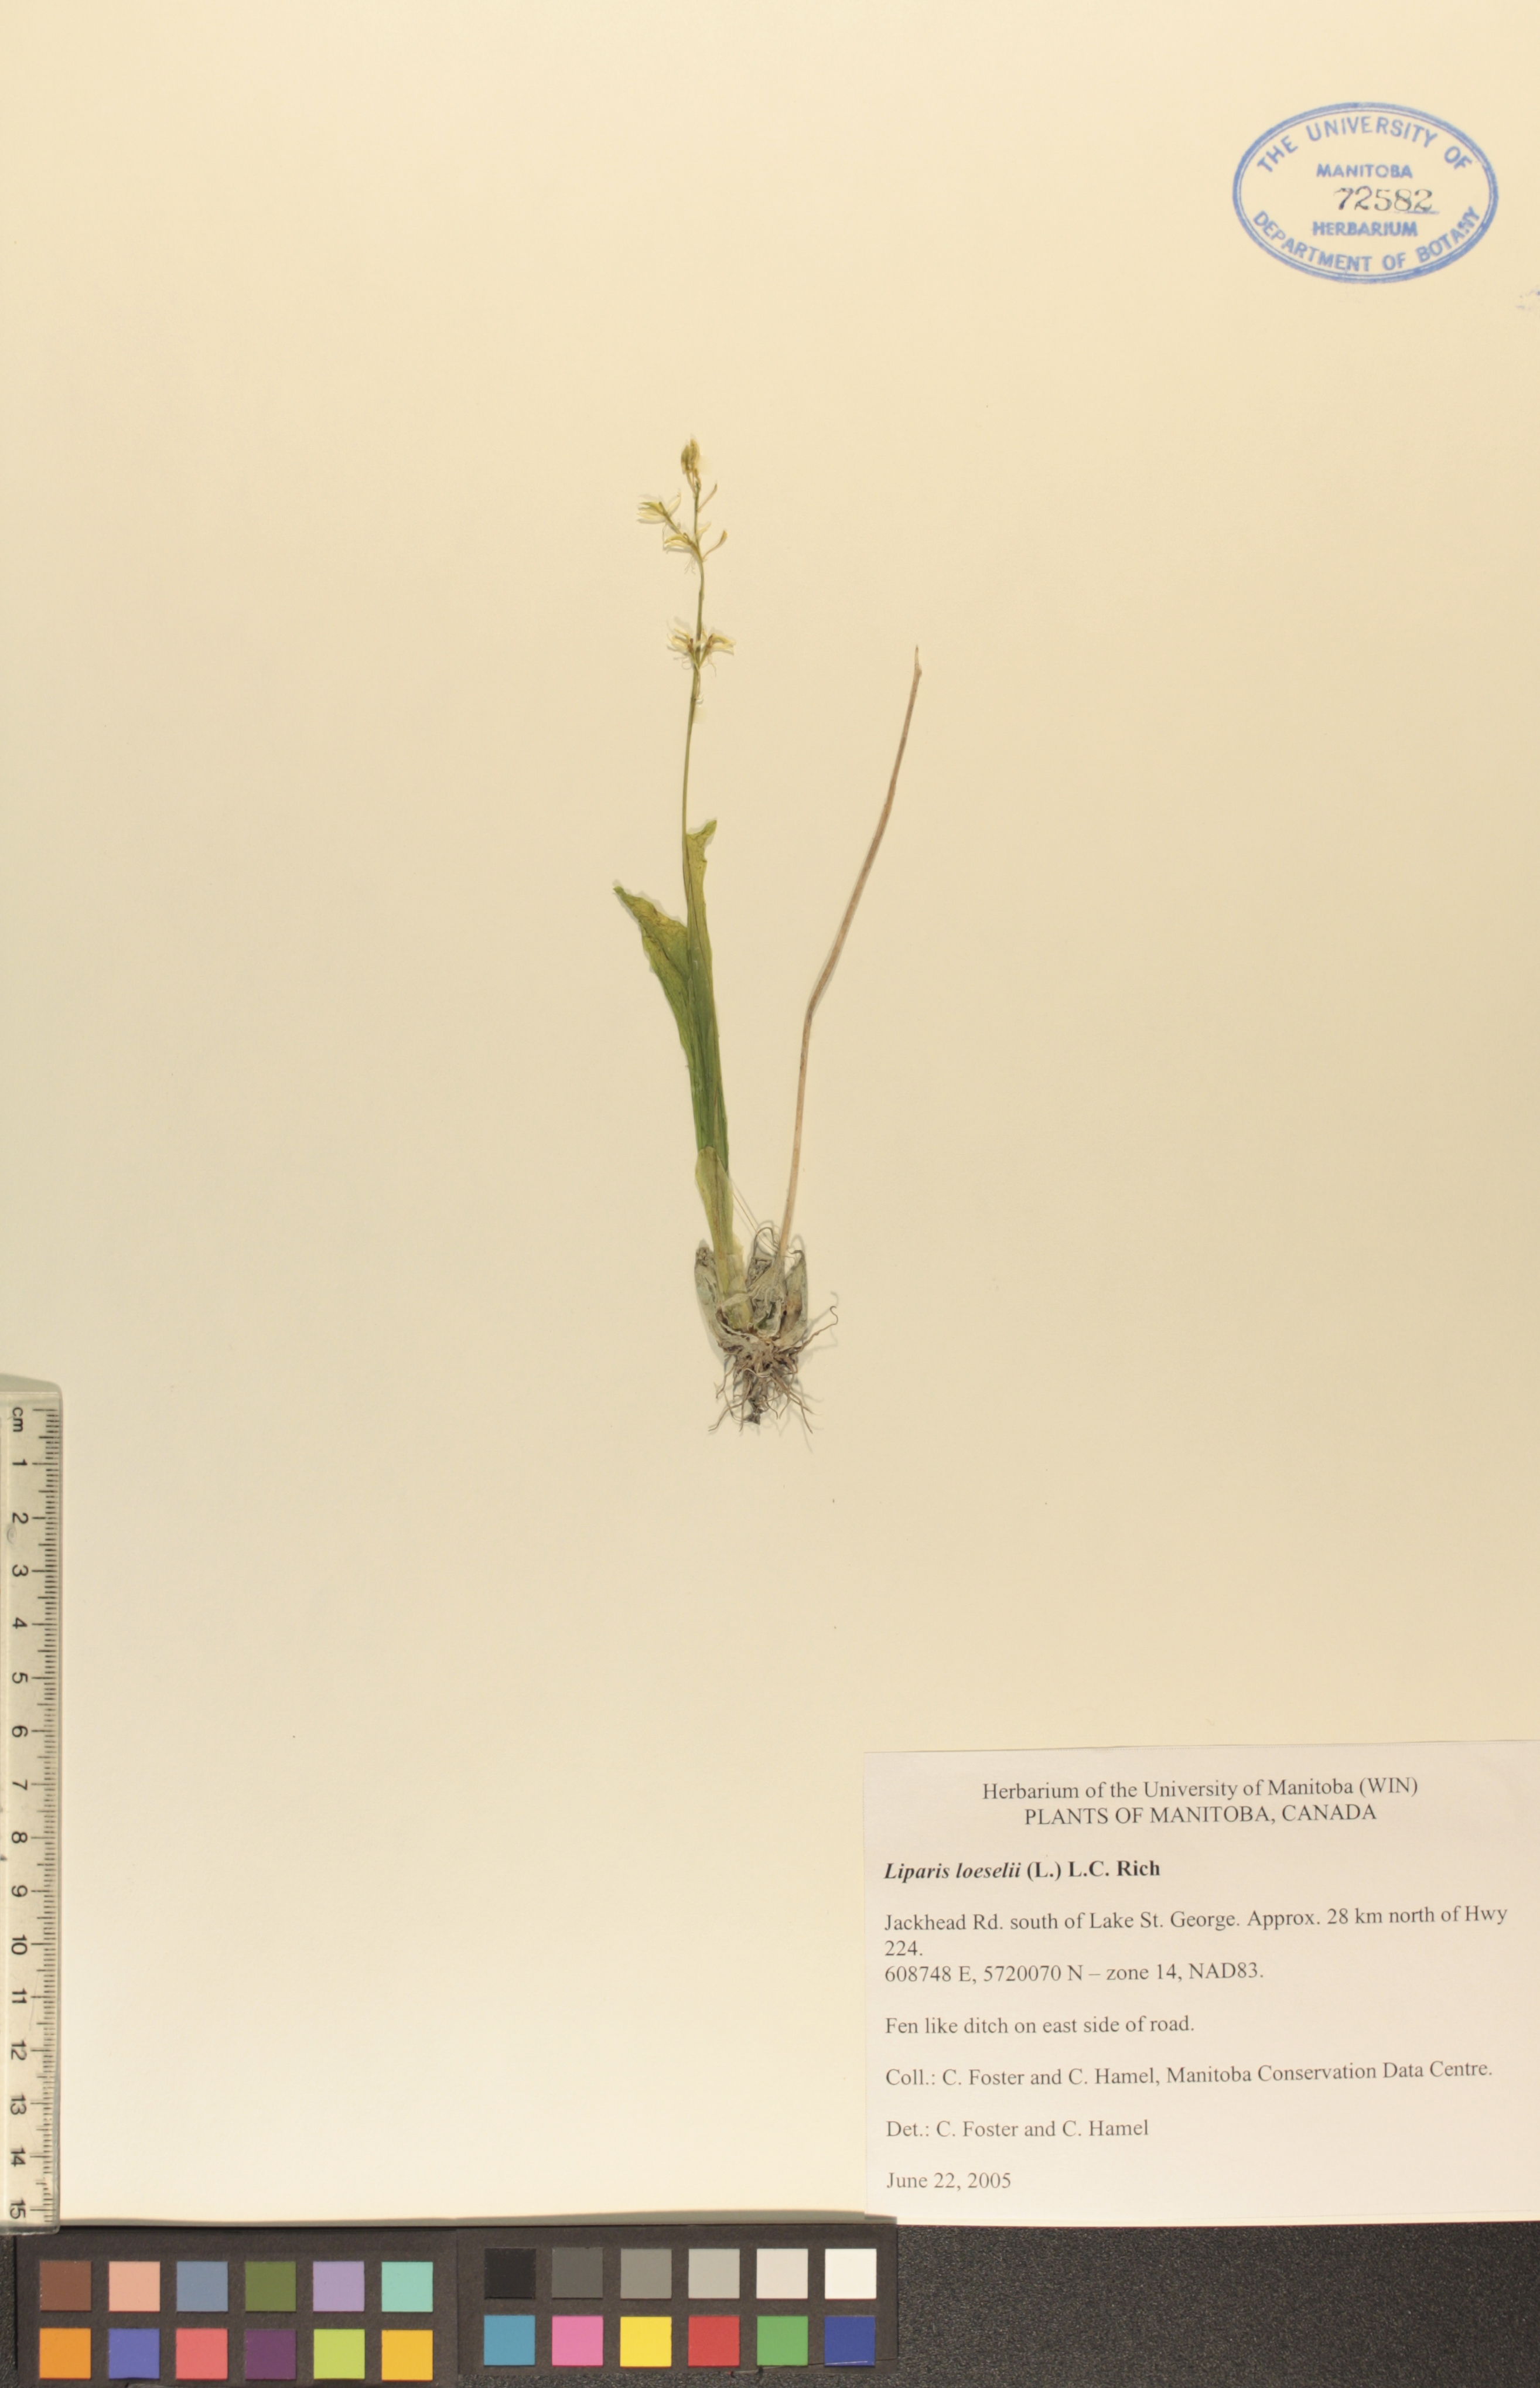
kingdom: Animalia
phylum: Arthropoda
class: Insecta
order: Coleoptera
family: Curculionidae
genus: Liparis
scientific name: Liparis loeselii
